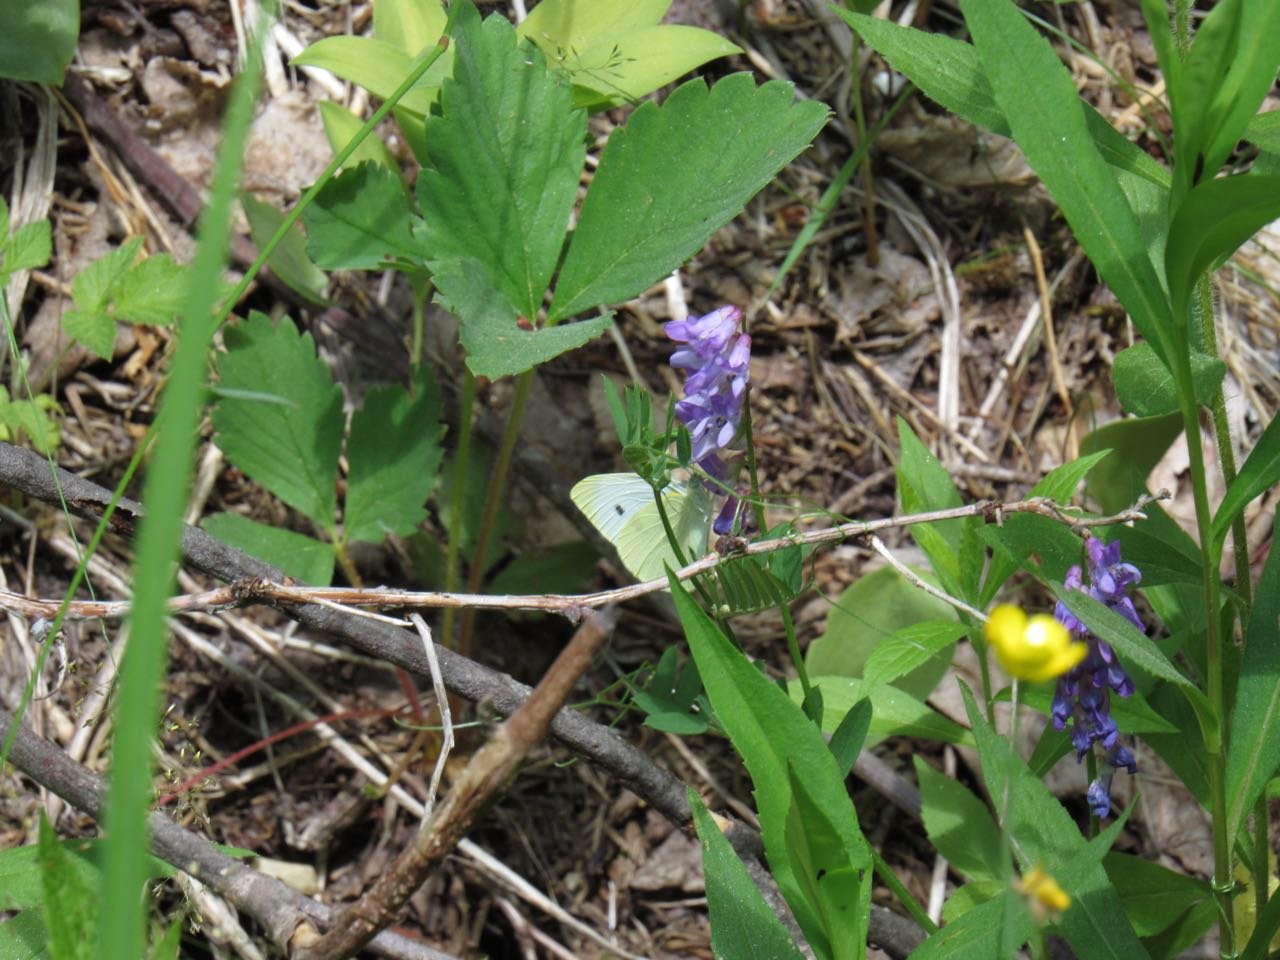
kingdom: Animalia
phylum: Arthropoda
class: Insecta
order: Lepidoptera
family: Pieridae
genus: Pieris
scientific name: Pieris rapae
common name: Cabbage White
